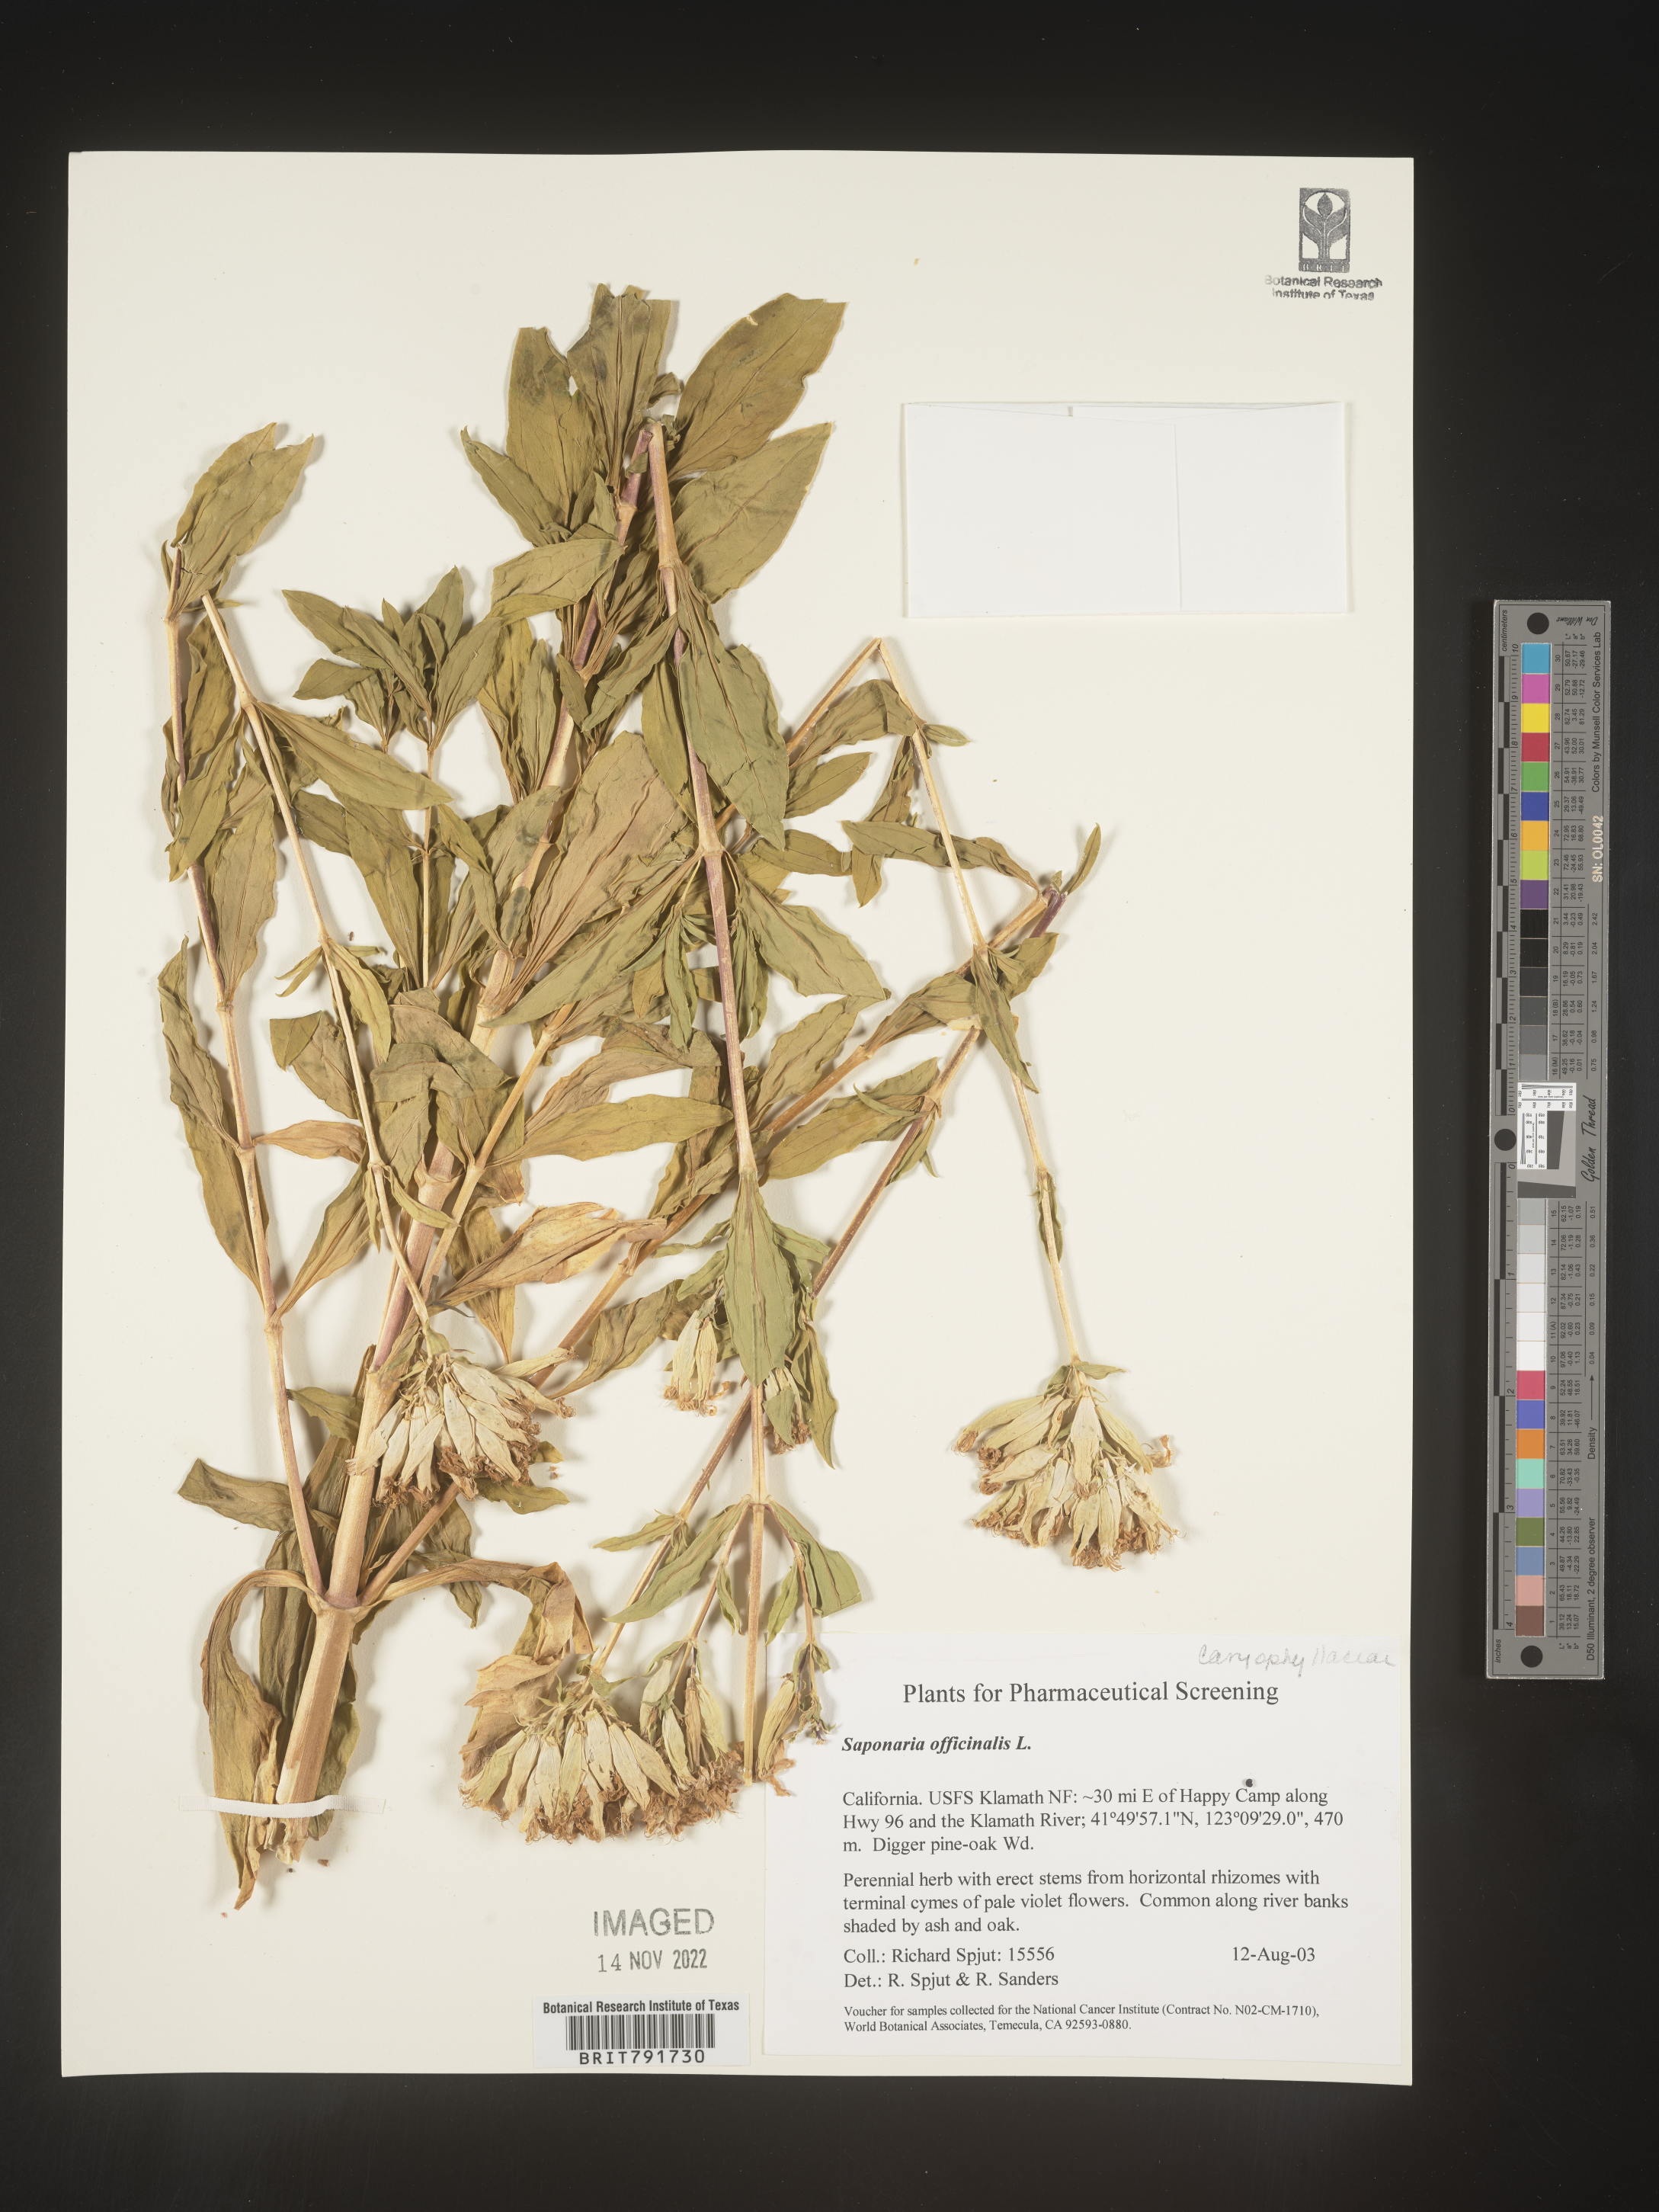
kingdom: Plantae
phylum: Tracheophyta
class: Magnoliopsida
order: Caryophyllales
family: Caryophyllaceae
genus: Saponaria
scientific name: Saponaria officinalis
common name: Soapwort
